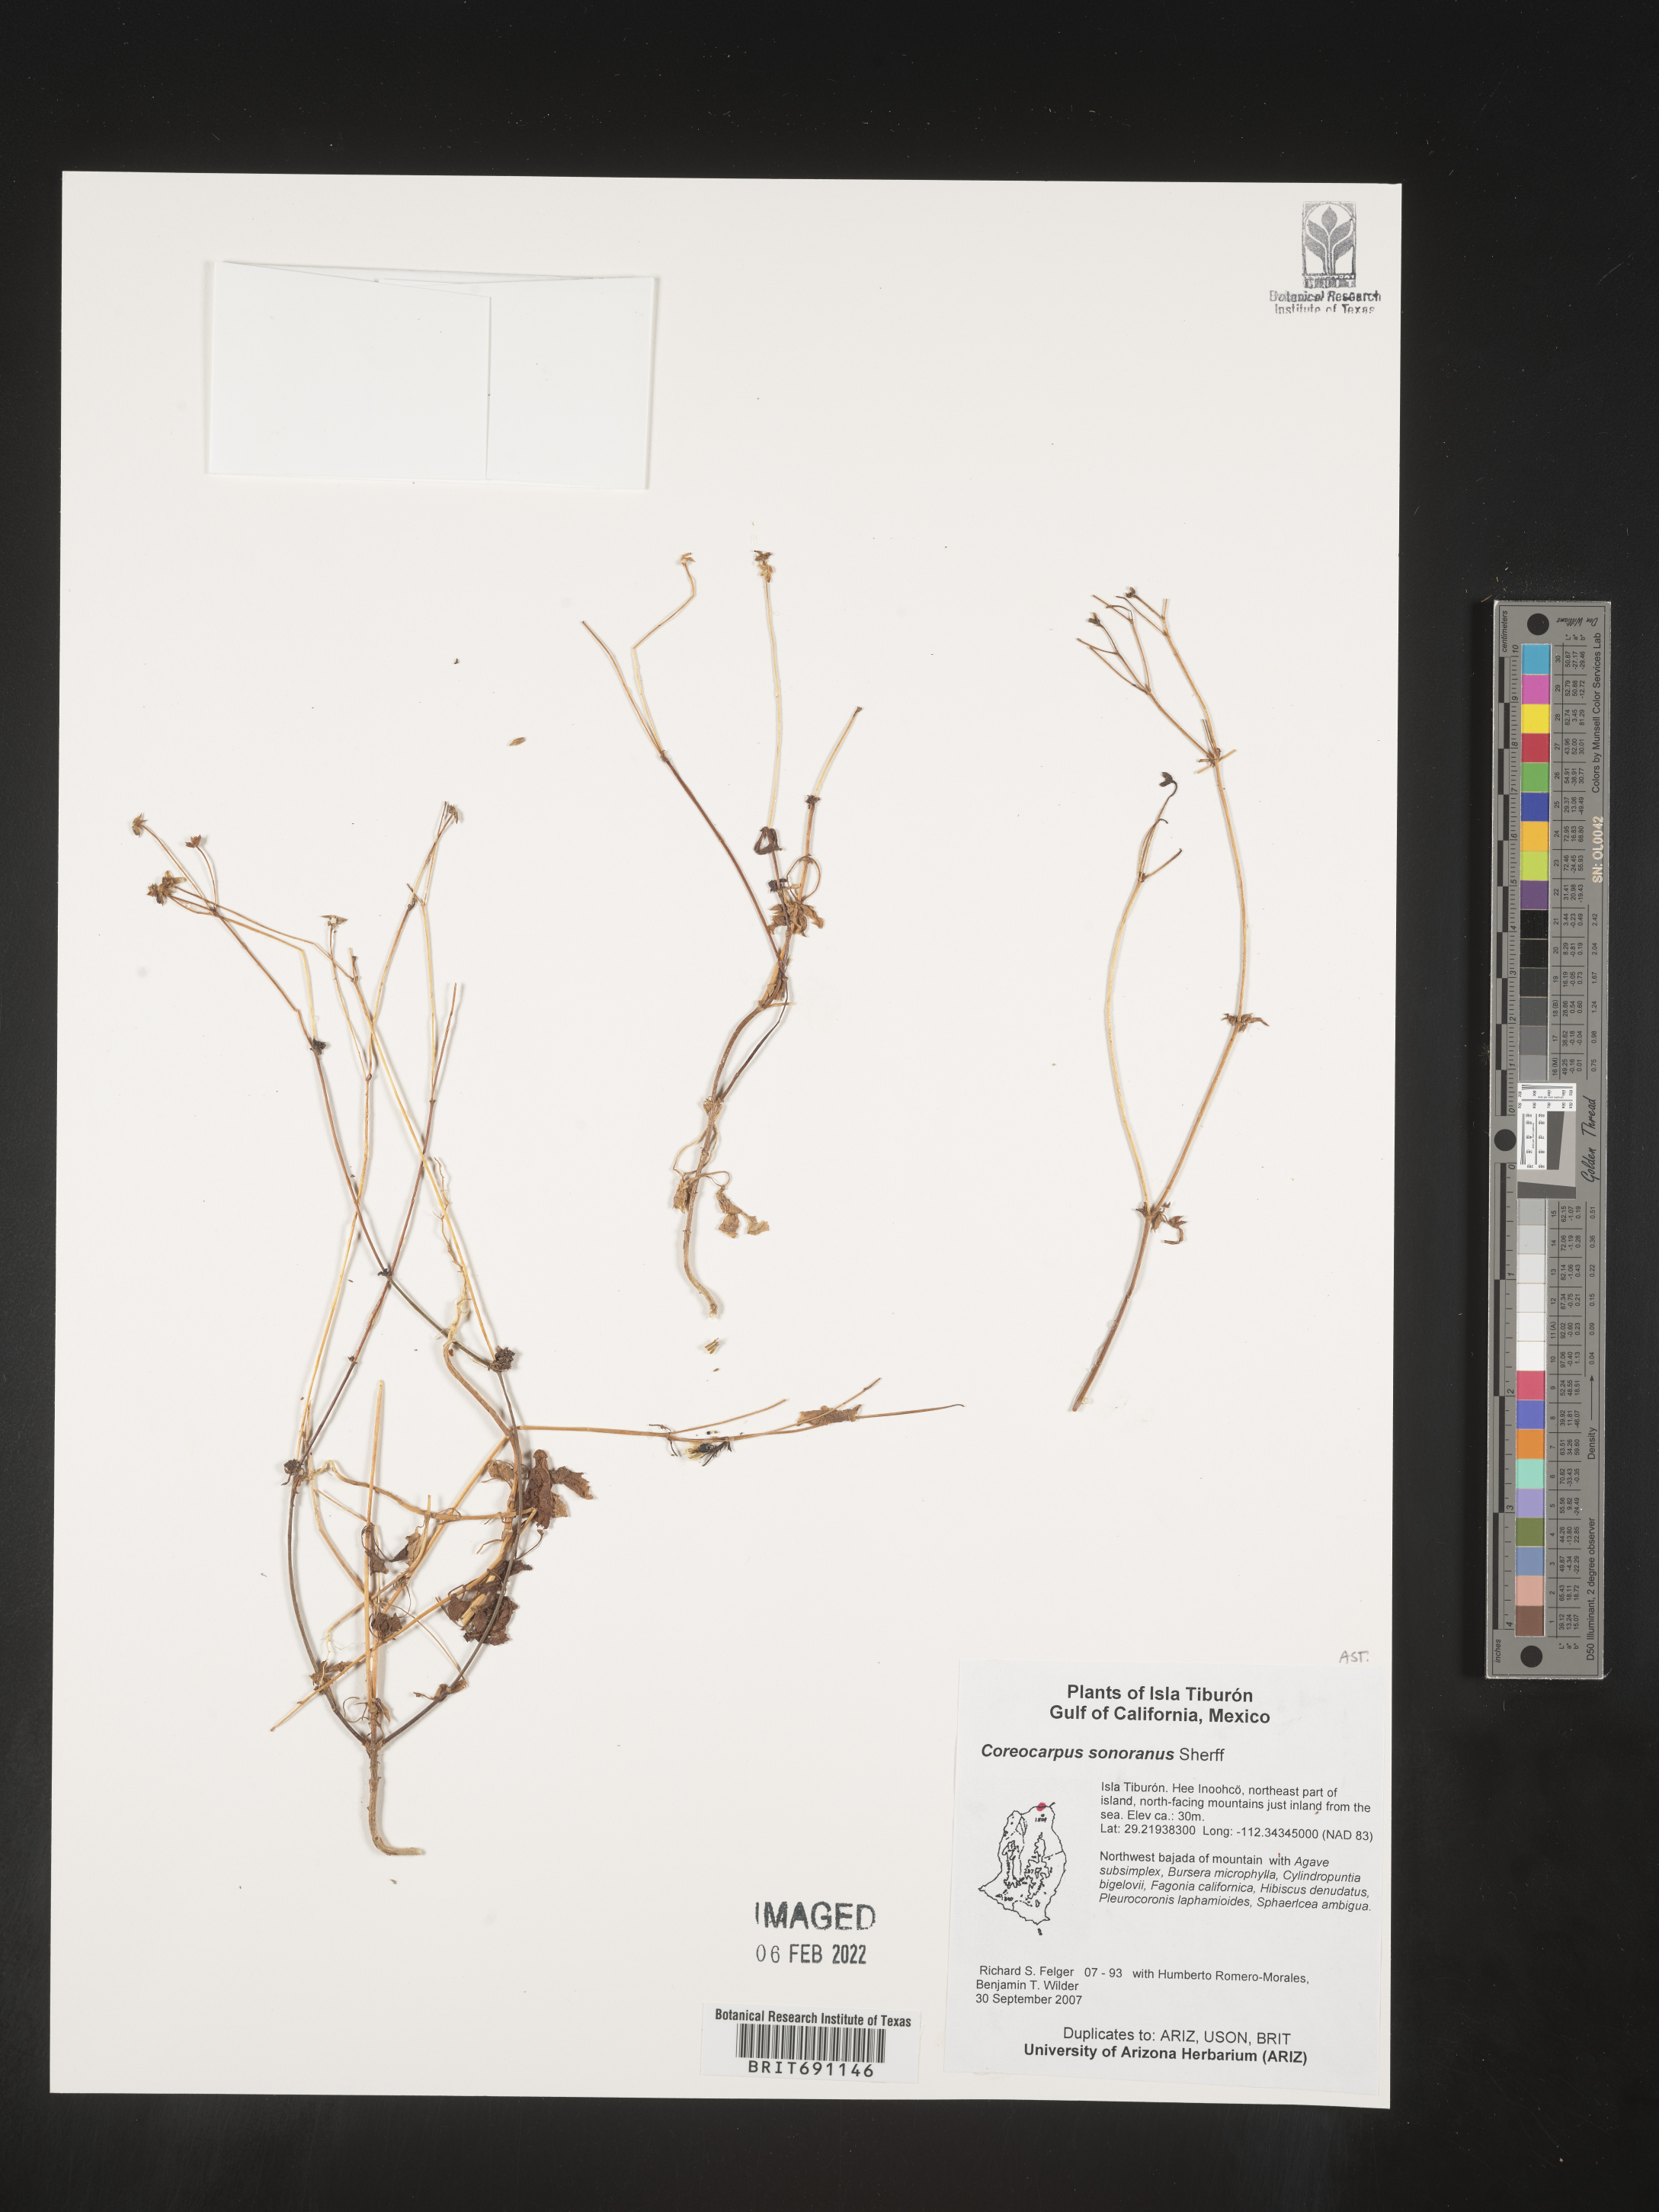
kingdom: Plantae
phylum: Tracheophyta
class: Magnoliopsida
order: Asterales
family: Asteraceae
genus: Coreocarpus
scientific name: Coreocarpus
